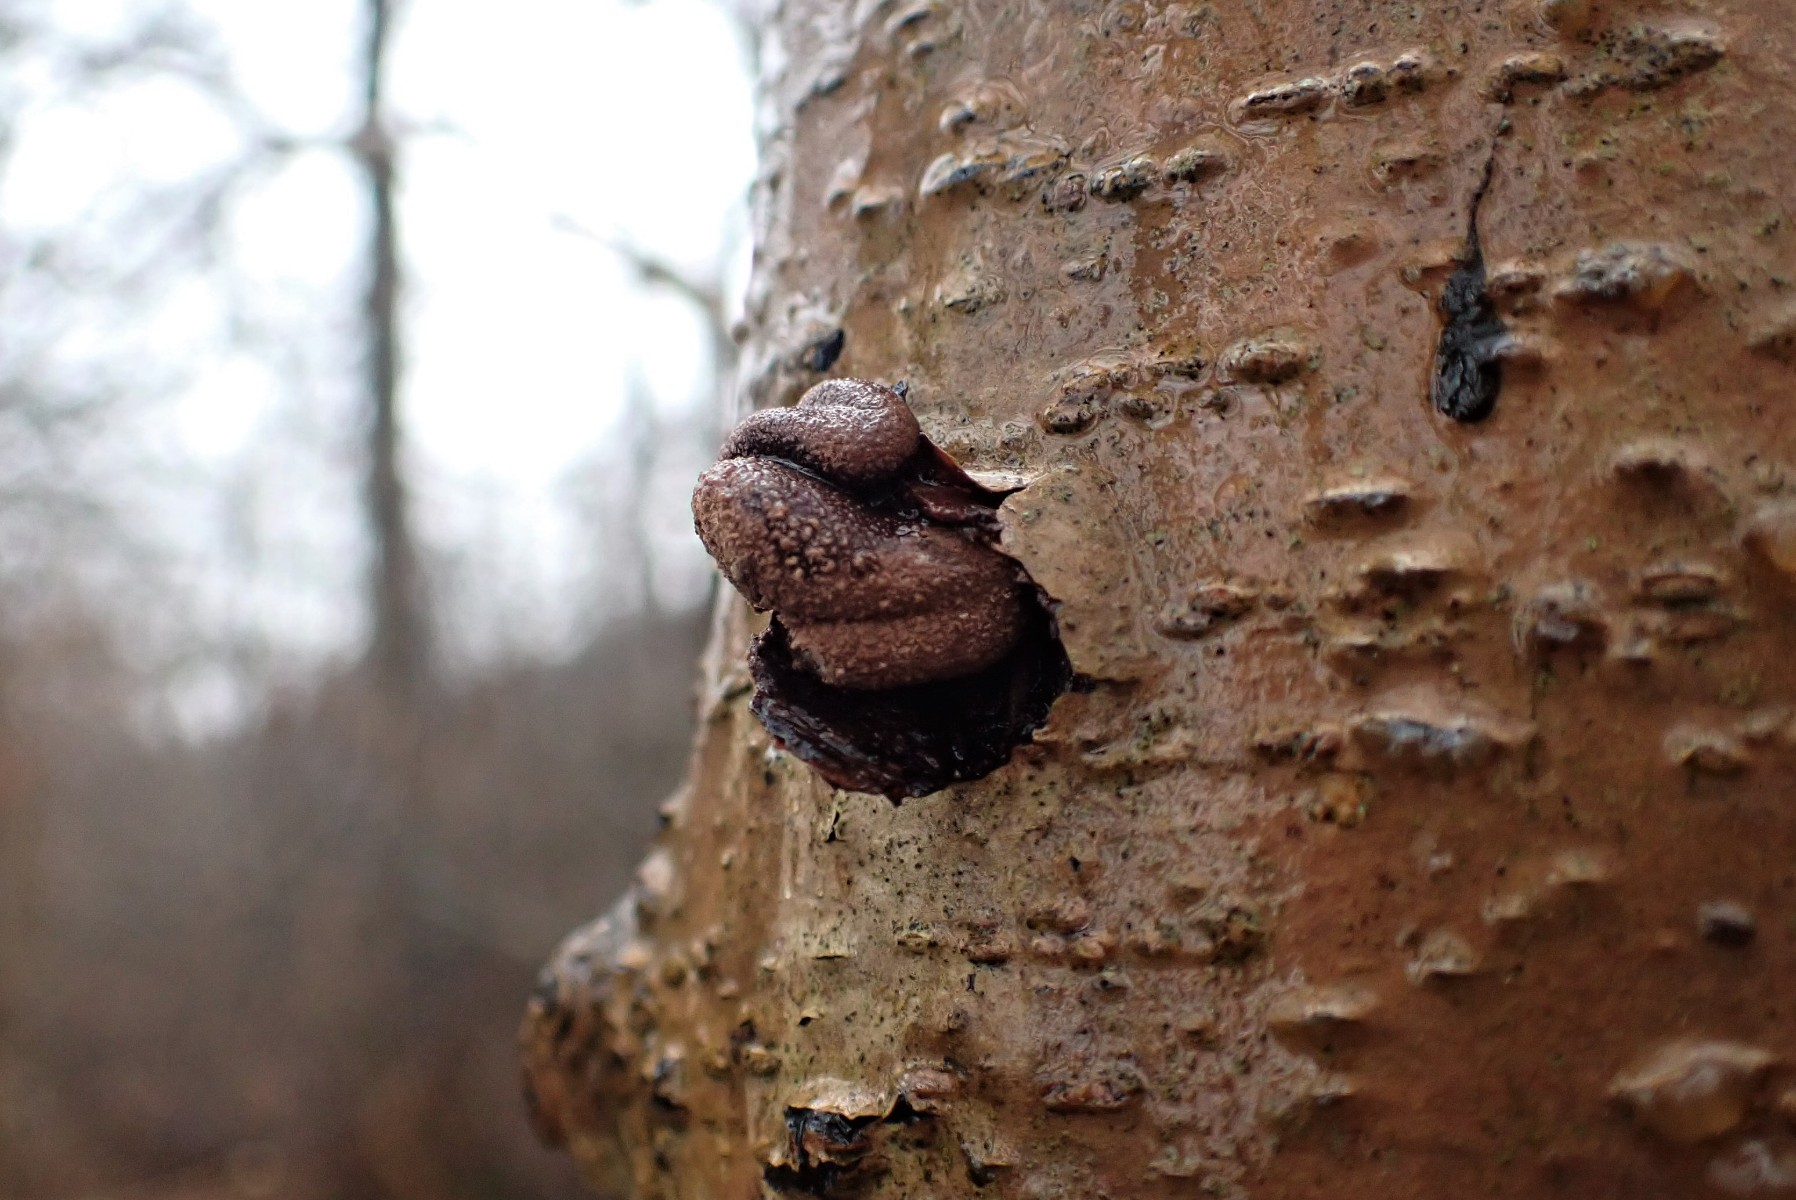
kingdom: Fungi
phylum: Ascomycota
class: Leotiomycetes
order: Helotiales
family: Cenangiaceae
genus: Encoelia
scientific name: Encoelia furfuracea
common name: hassel-læderskive
